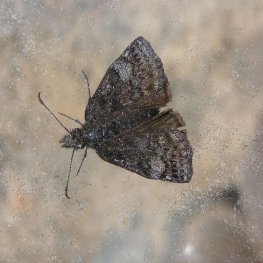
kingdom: Animalia
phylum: Arthropoda
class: Insecta
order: Lepidoptera
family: Hesperiidae
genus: Erynnis
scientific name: Erynnis icelus
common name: Dreamy Duskywing
